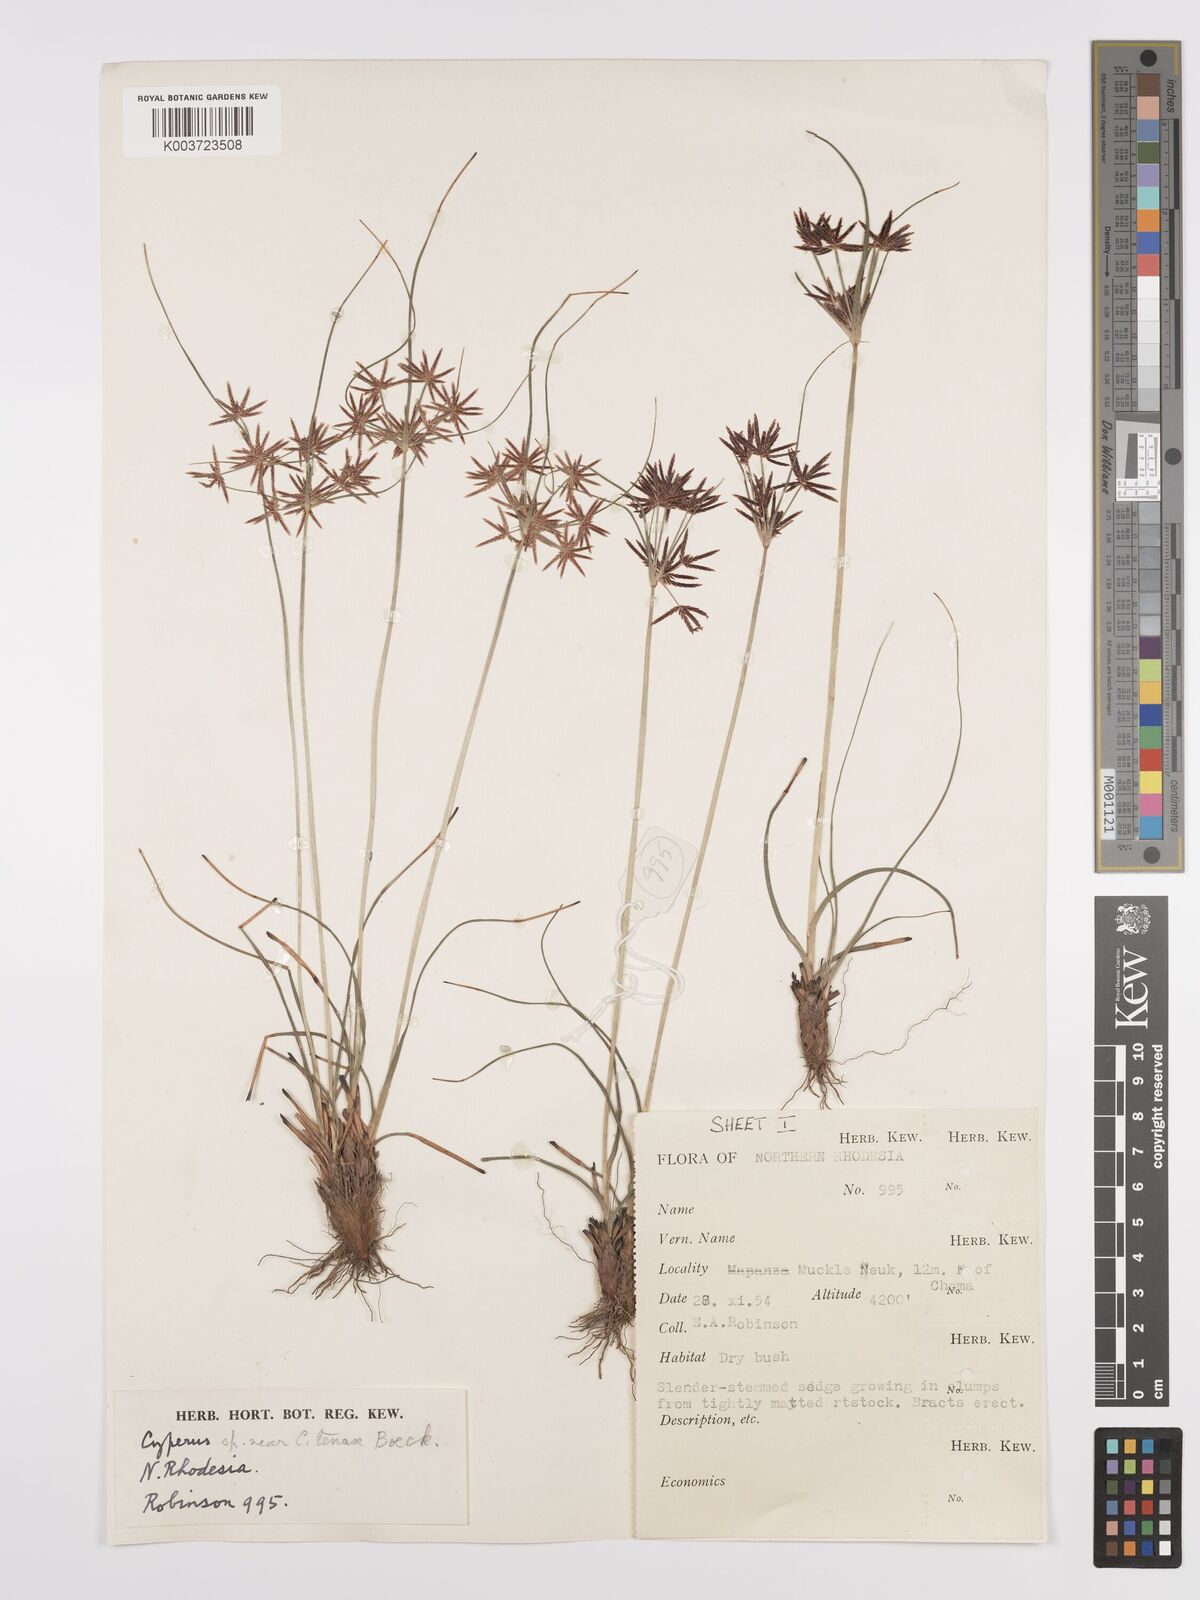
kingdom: Plantae
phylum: Tracheophyta
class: Liliopsida
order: Poales
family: Cyperaceae
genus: Cyperus
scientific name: Cyperus tenax
